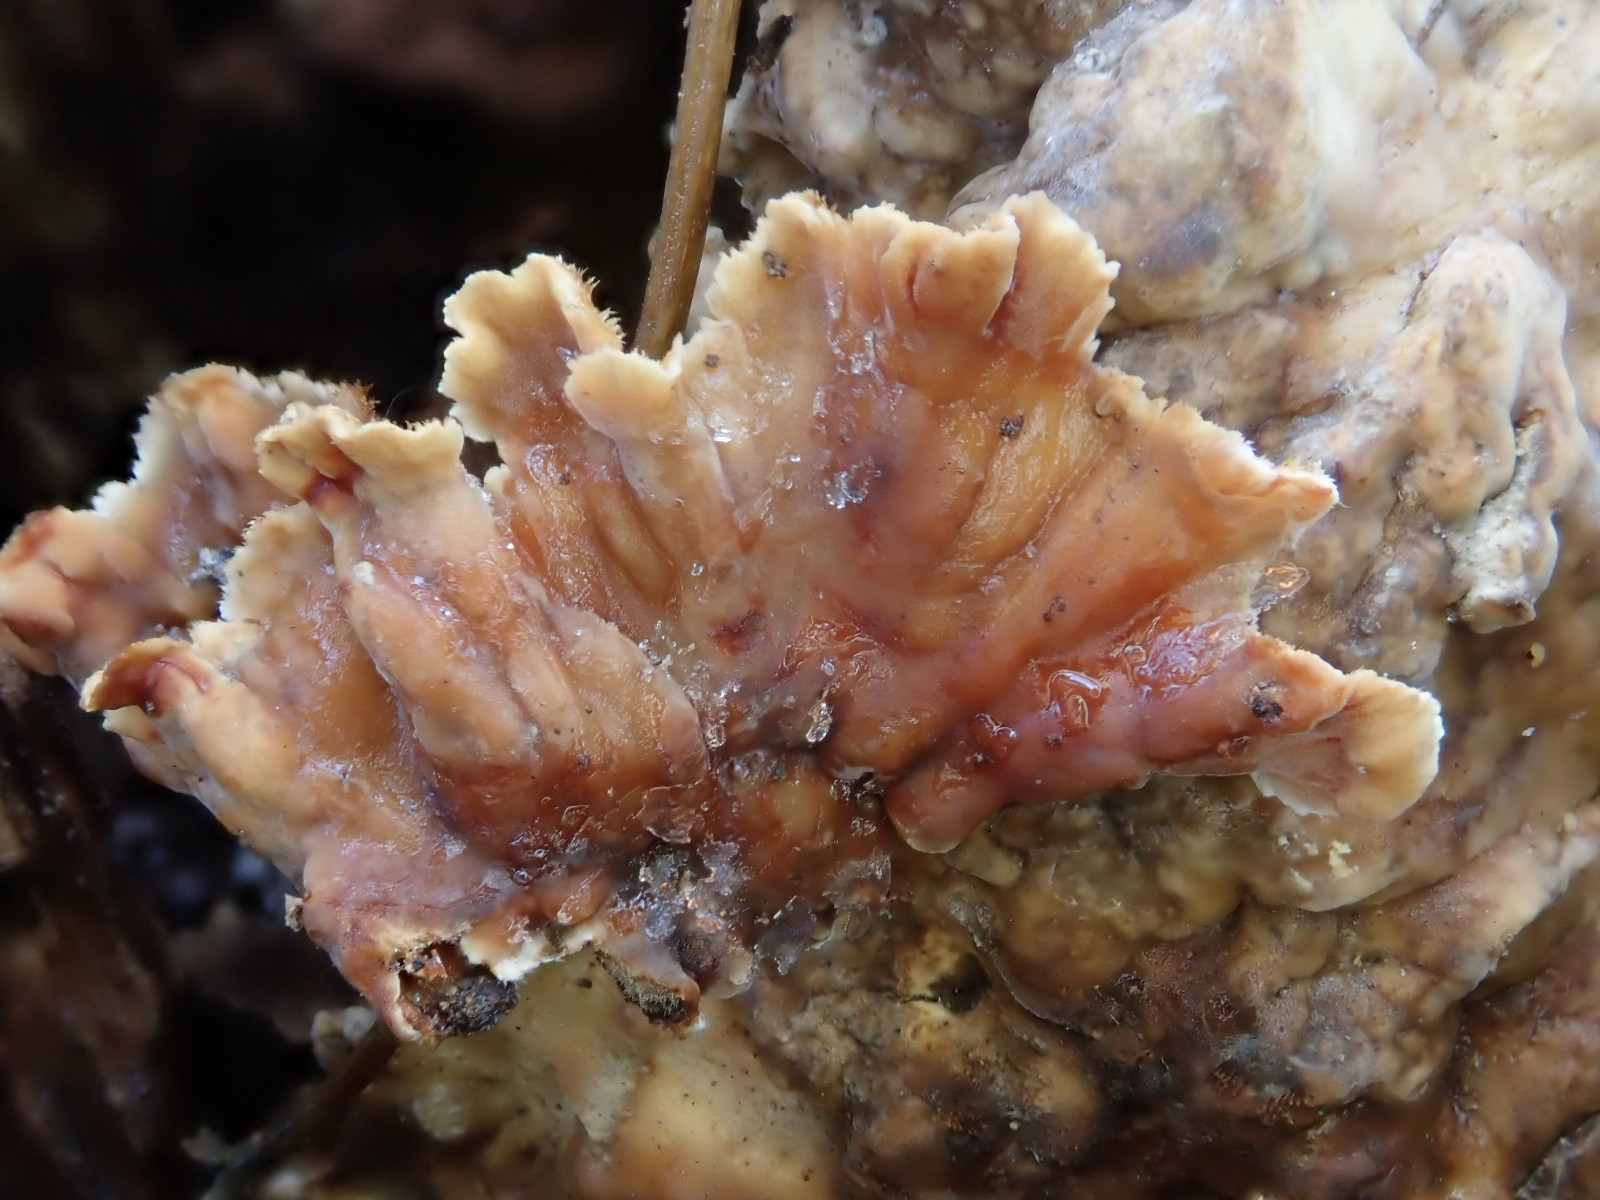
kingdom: Fungi
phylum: Basidiomycota
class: Agaricomycetes
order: Russulales
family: Stereaceae
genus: Stereum
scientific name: Stereum gausapatum
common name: tynd lædersvamp
